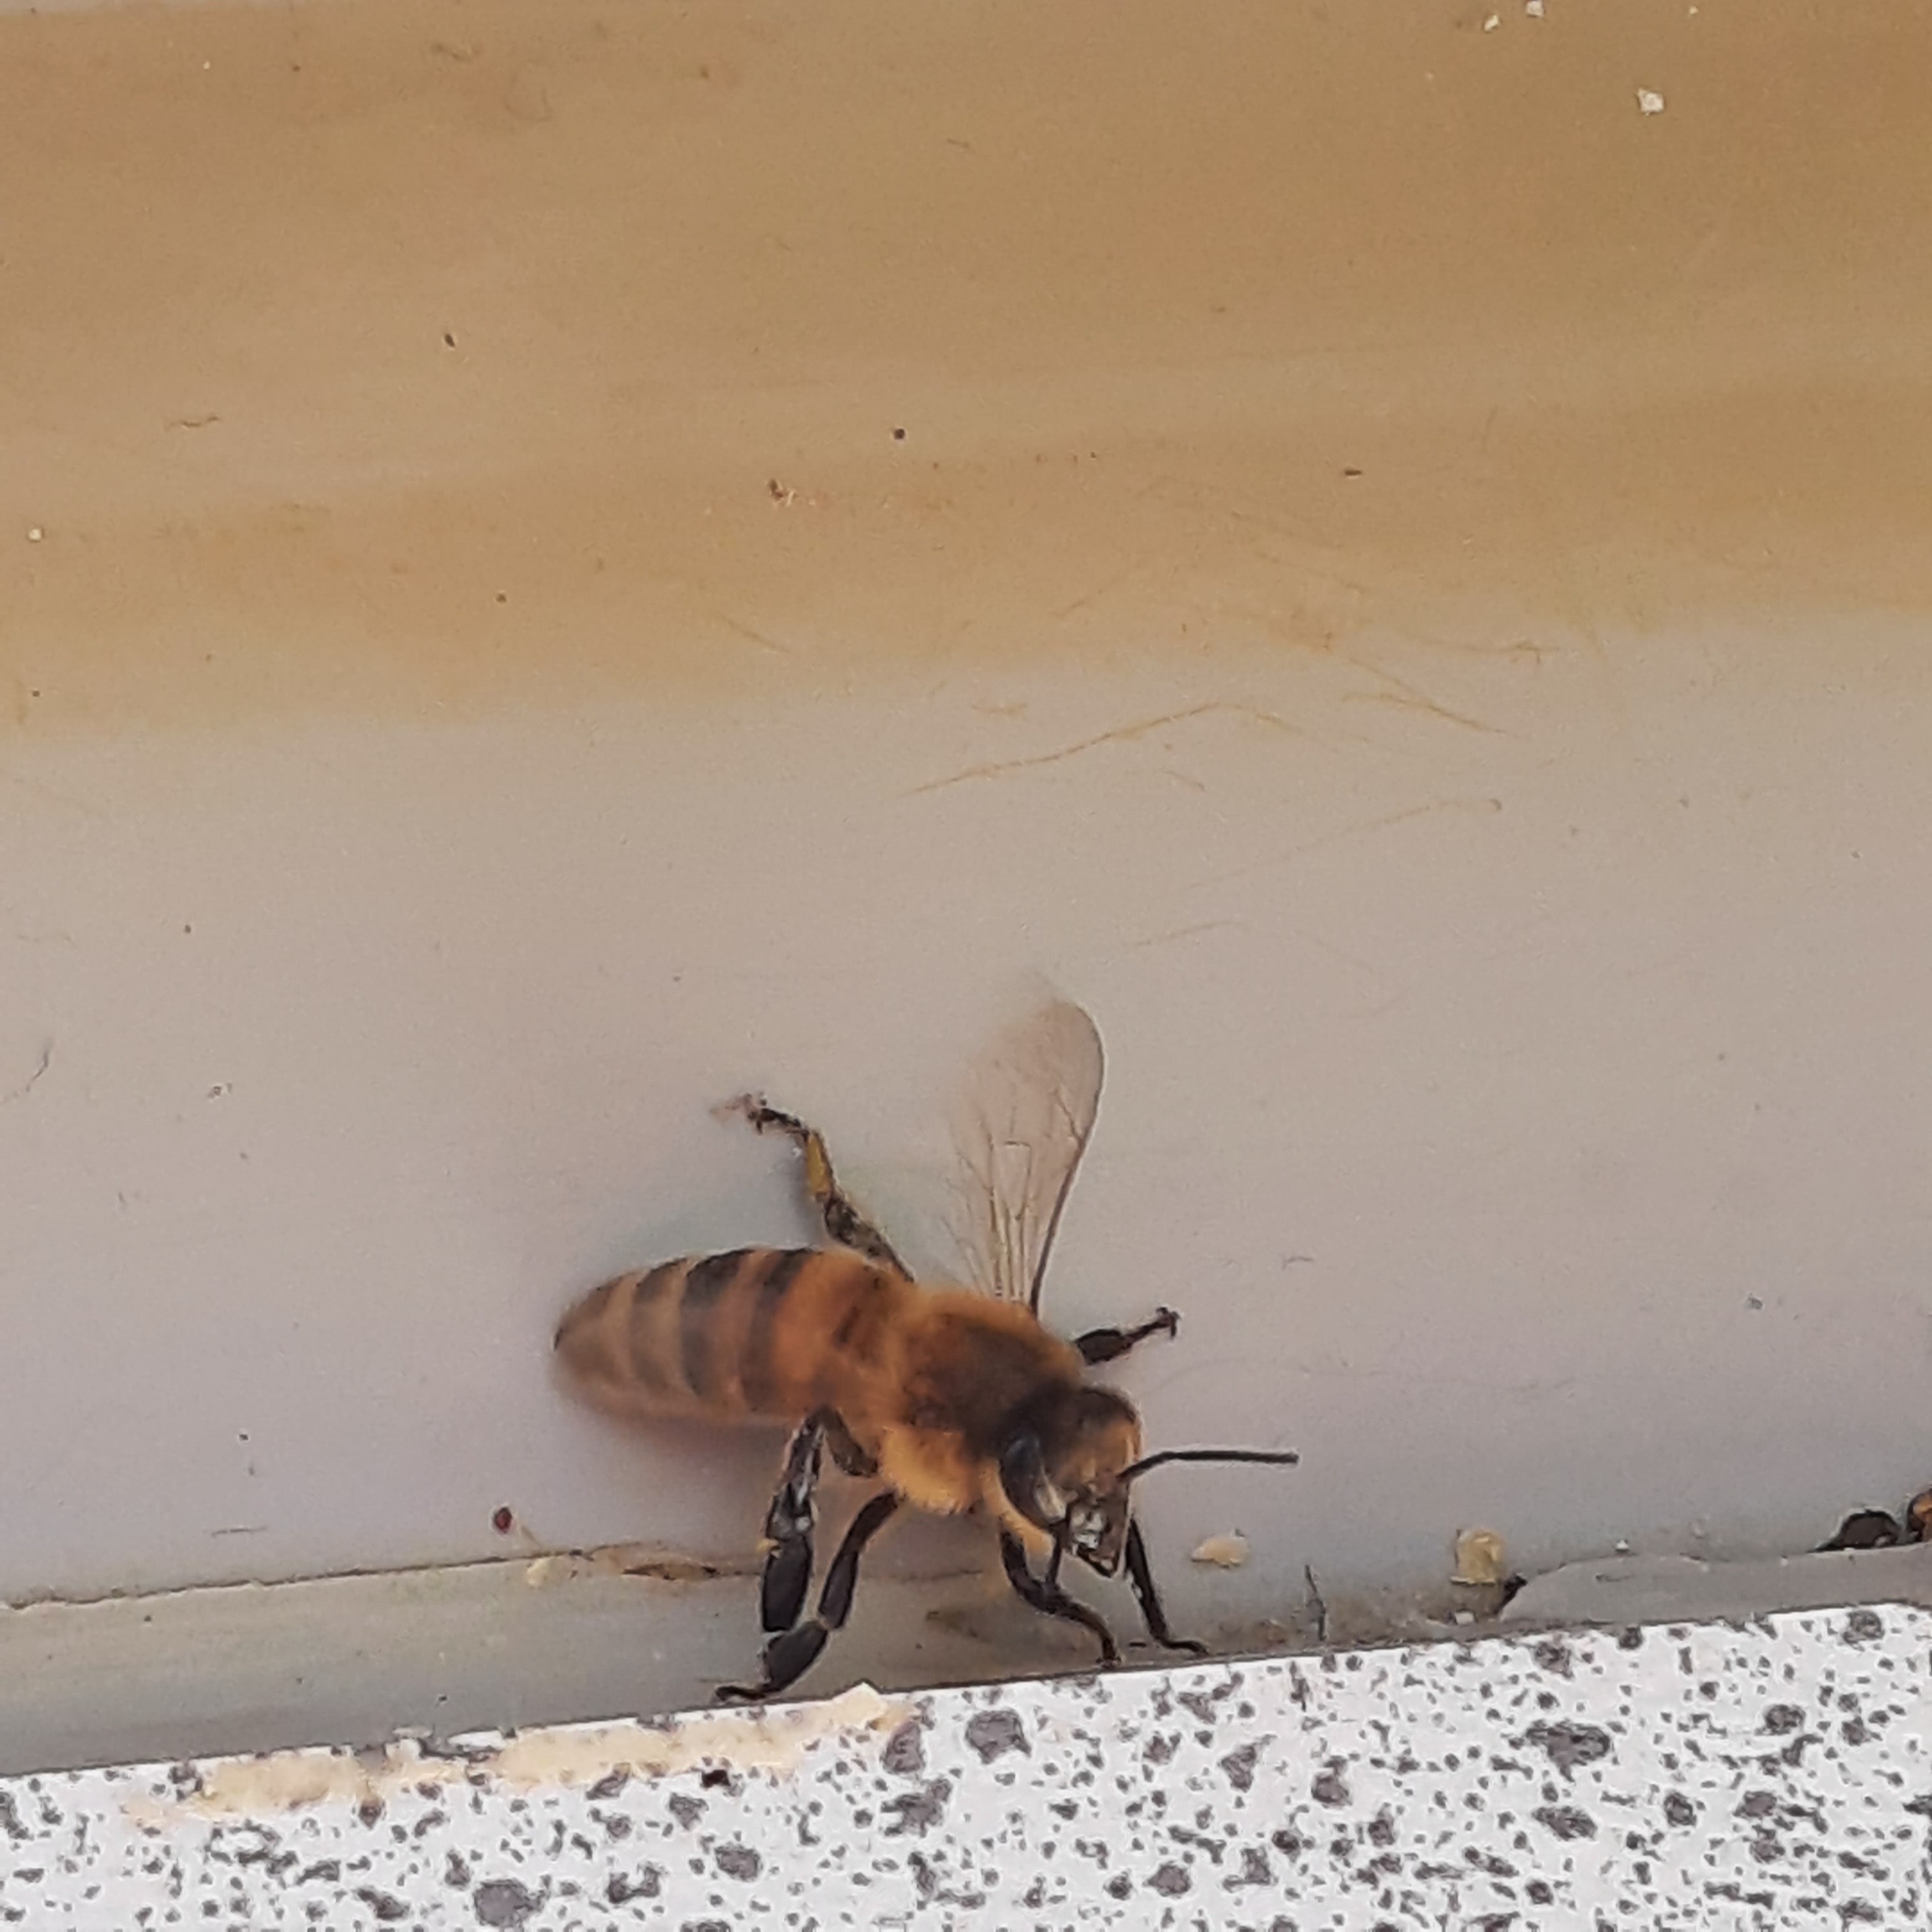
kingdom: Animalia
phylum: Arthropoda
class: Insecta
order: Hymenoptera
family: Apidae
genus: Apis
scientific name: Apis mellifera
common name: Honningbi
